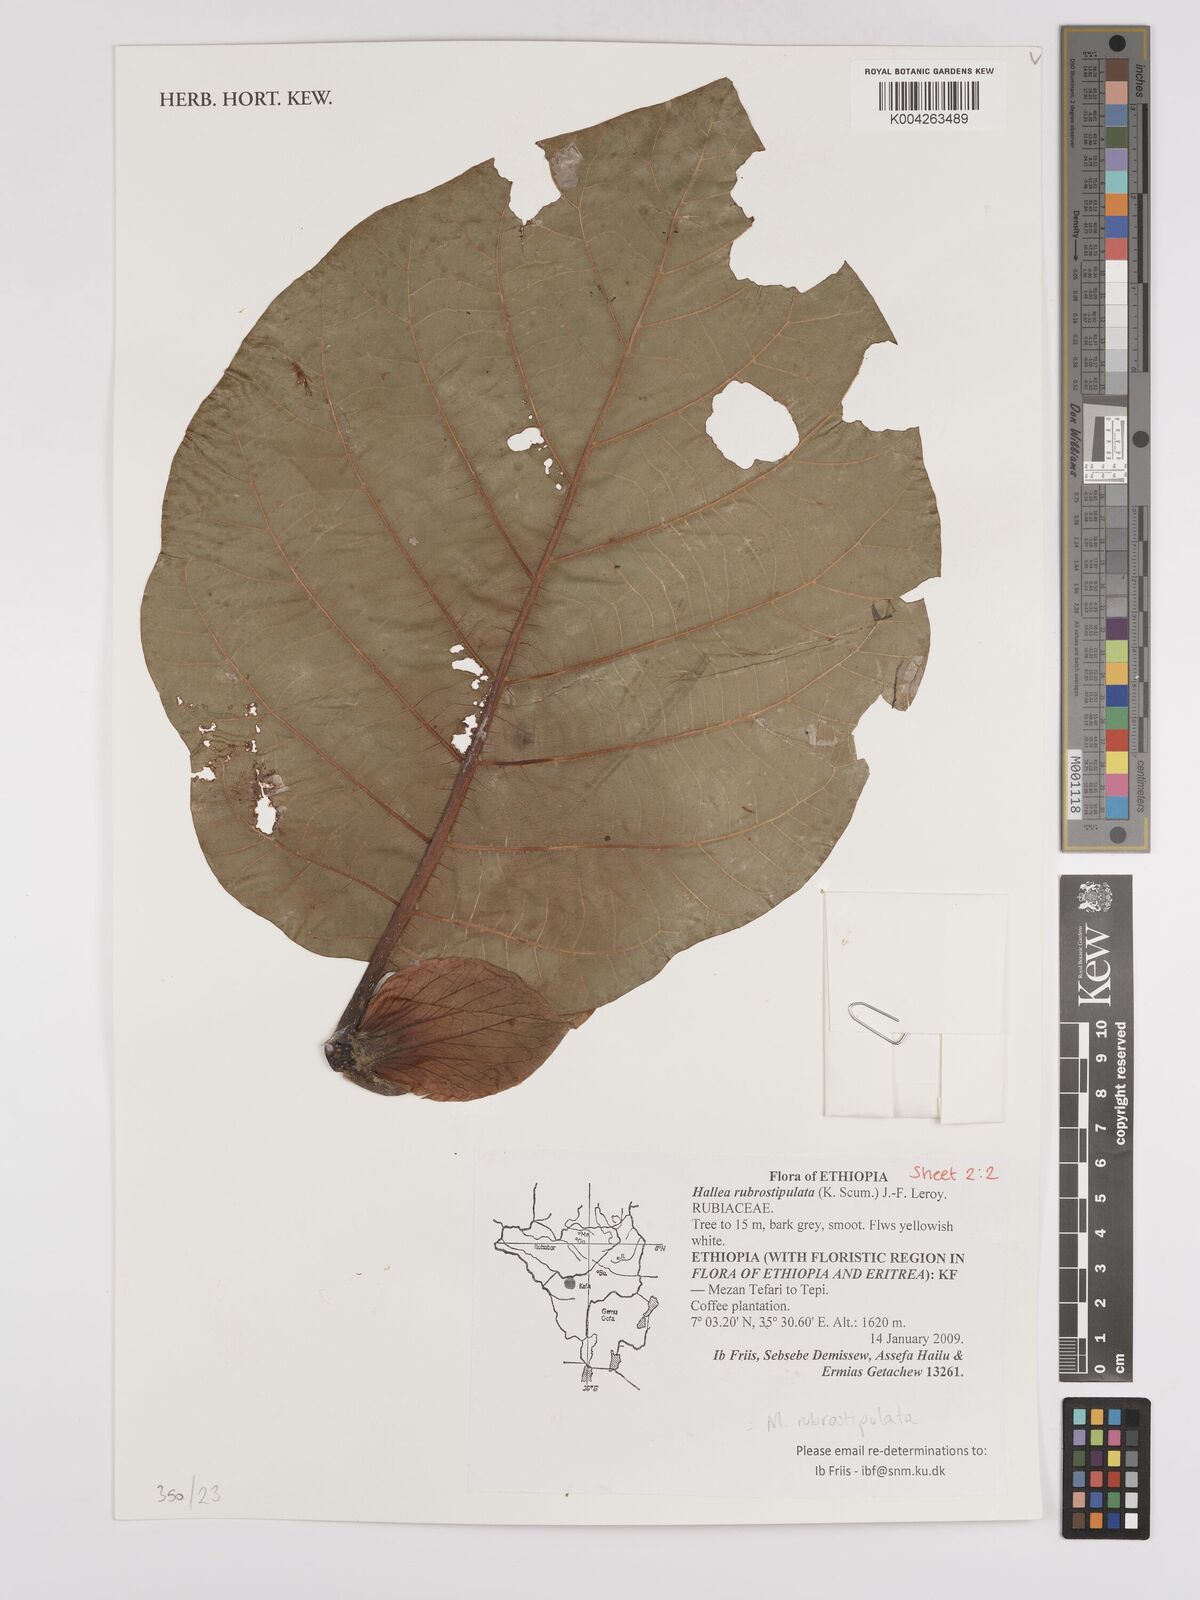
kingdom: Plantae
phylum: Tracheophyta
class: Magnoliopsida
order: Gentianales
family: Rubiaceae
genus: Mitragyna
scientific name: Mitragyna rubrostipulata
